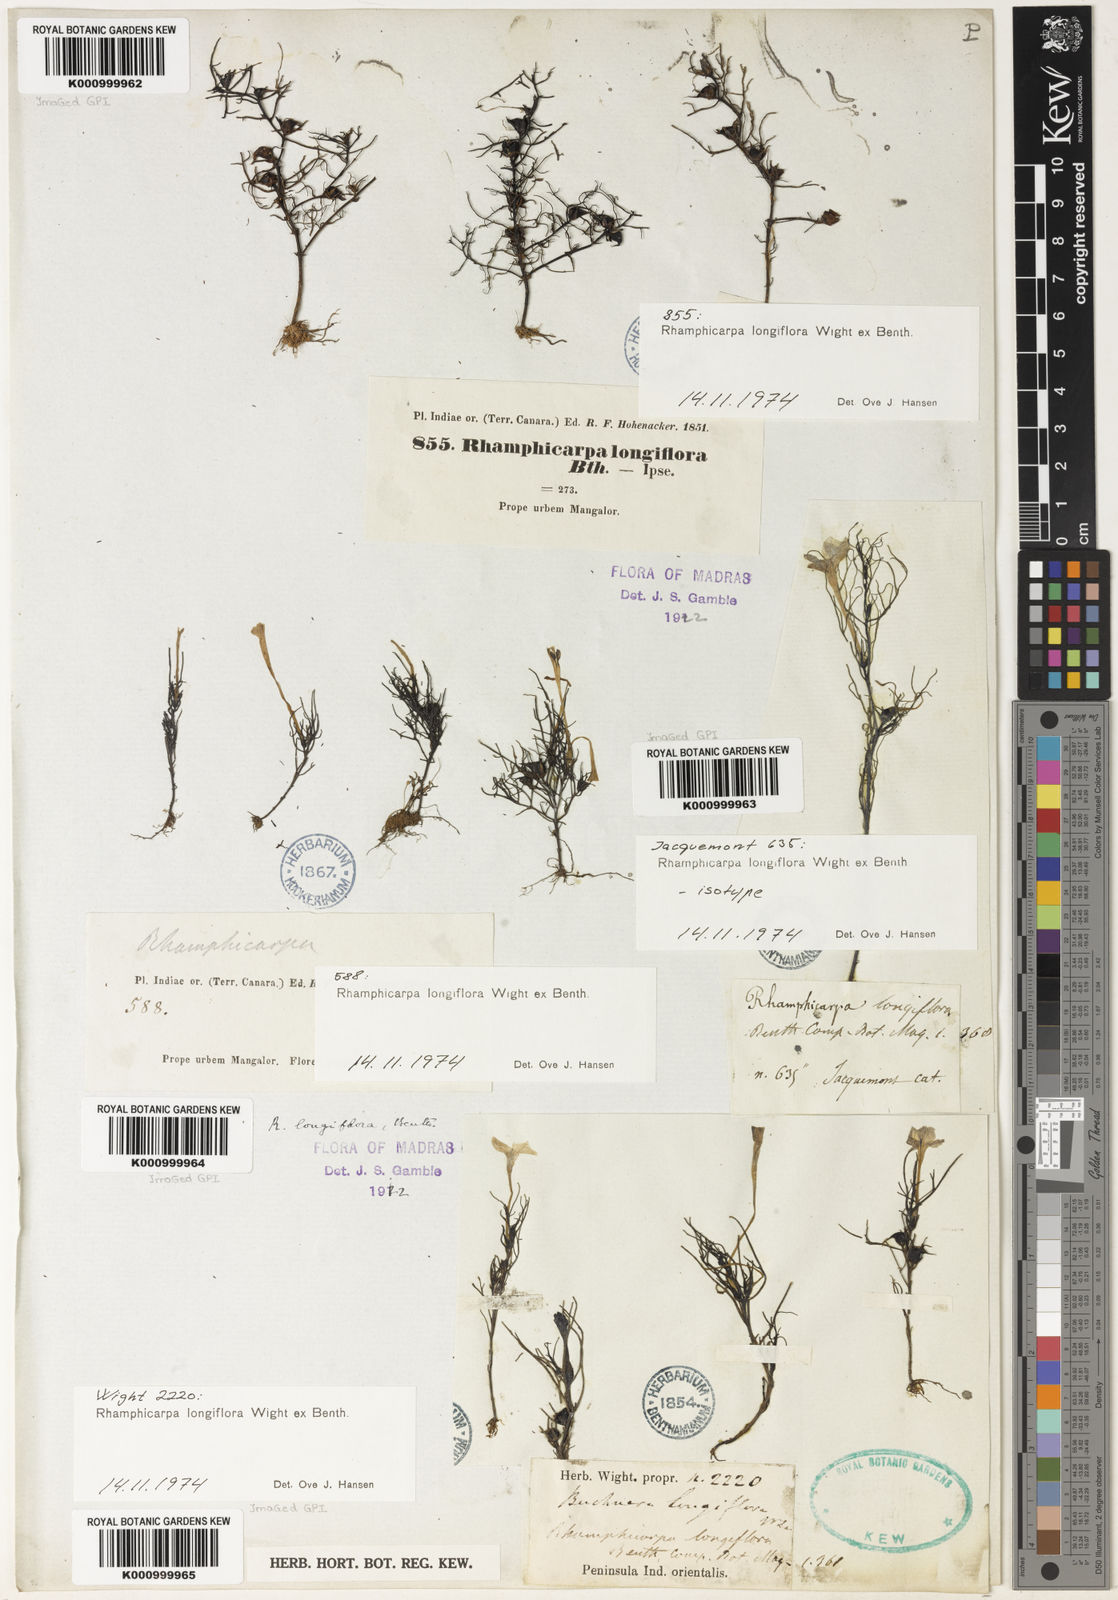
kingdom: Plantae
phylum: Tracheophyta
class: Magnoliopsida
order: Lamiales
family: Orobanchaceae
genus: Rhamphicarpa
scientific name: Rhamphicarpa elongata
